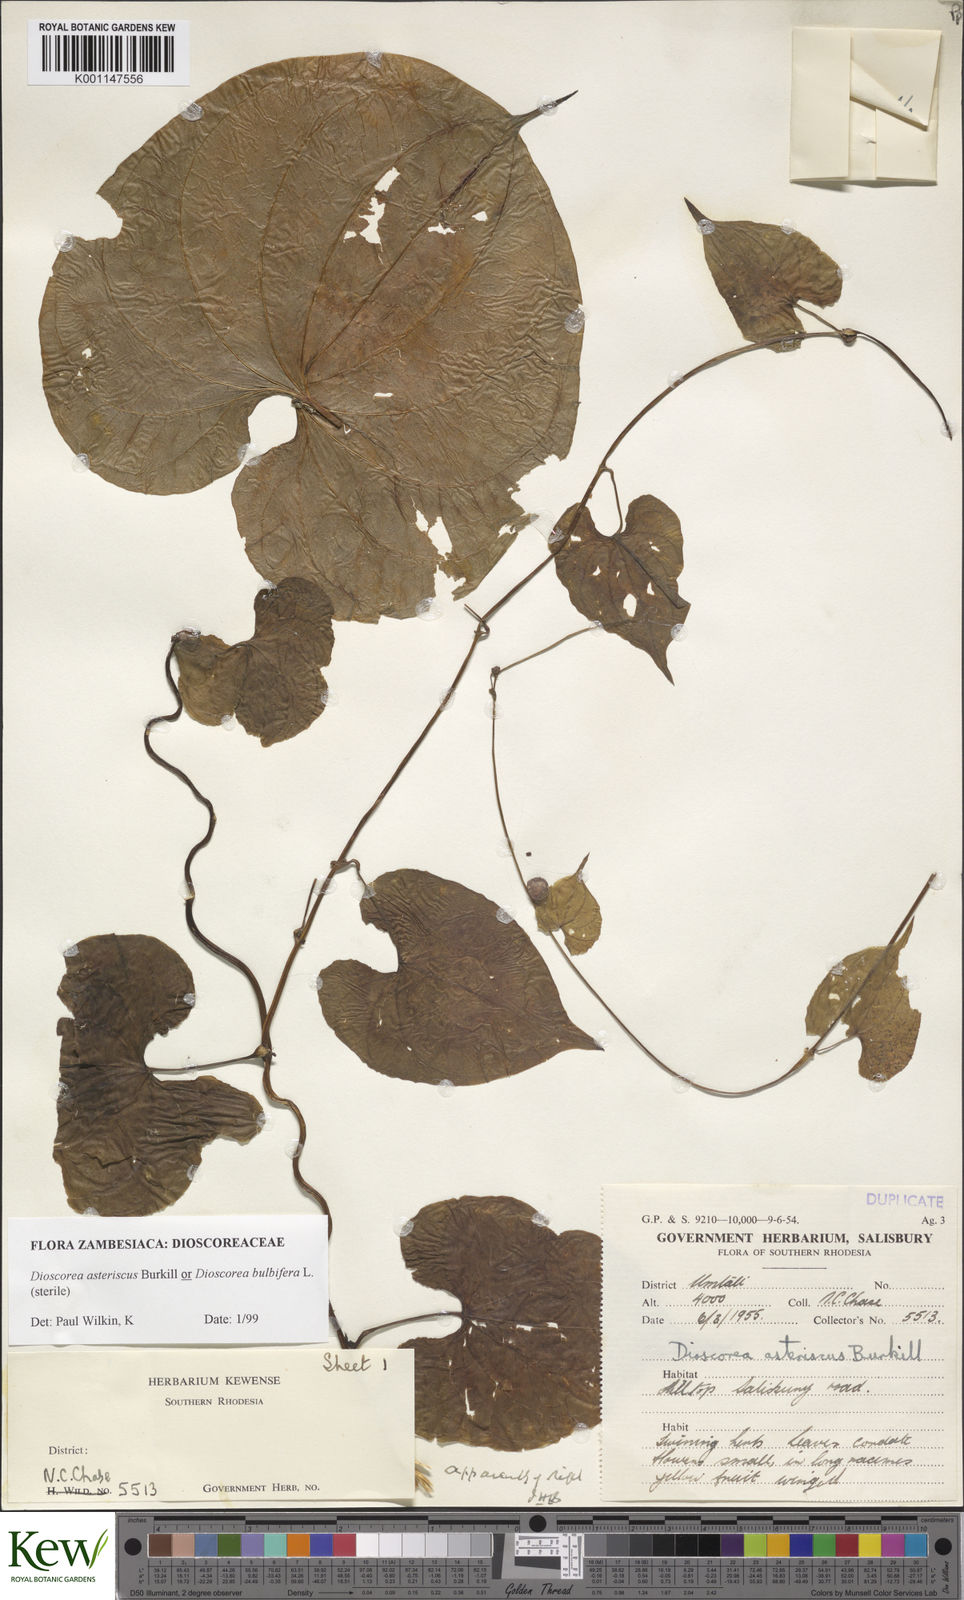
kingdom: Plantae
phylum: Tracheophyta
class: Liliopsida
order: Dioscoreales
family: Dioscoreaceae
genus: Dioscorea
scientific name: Dioscorea asteriscus
